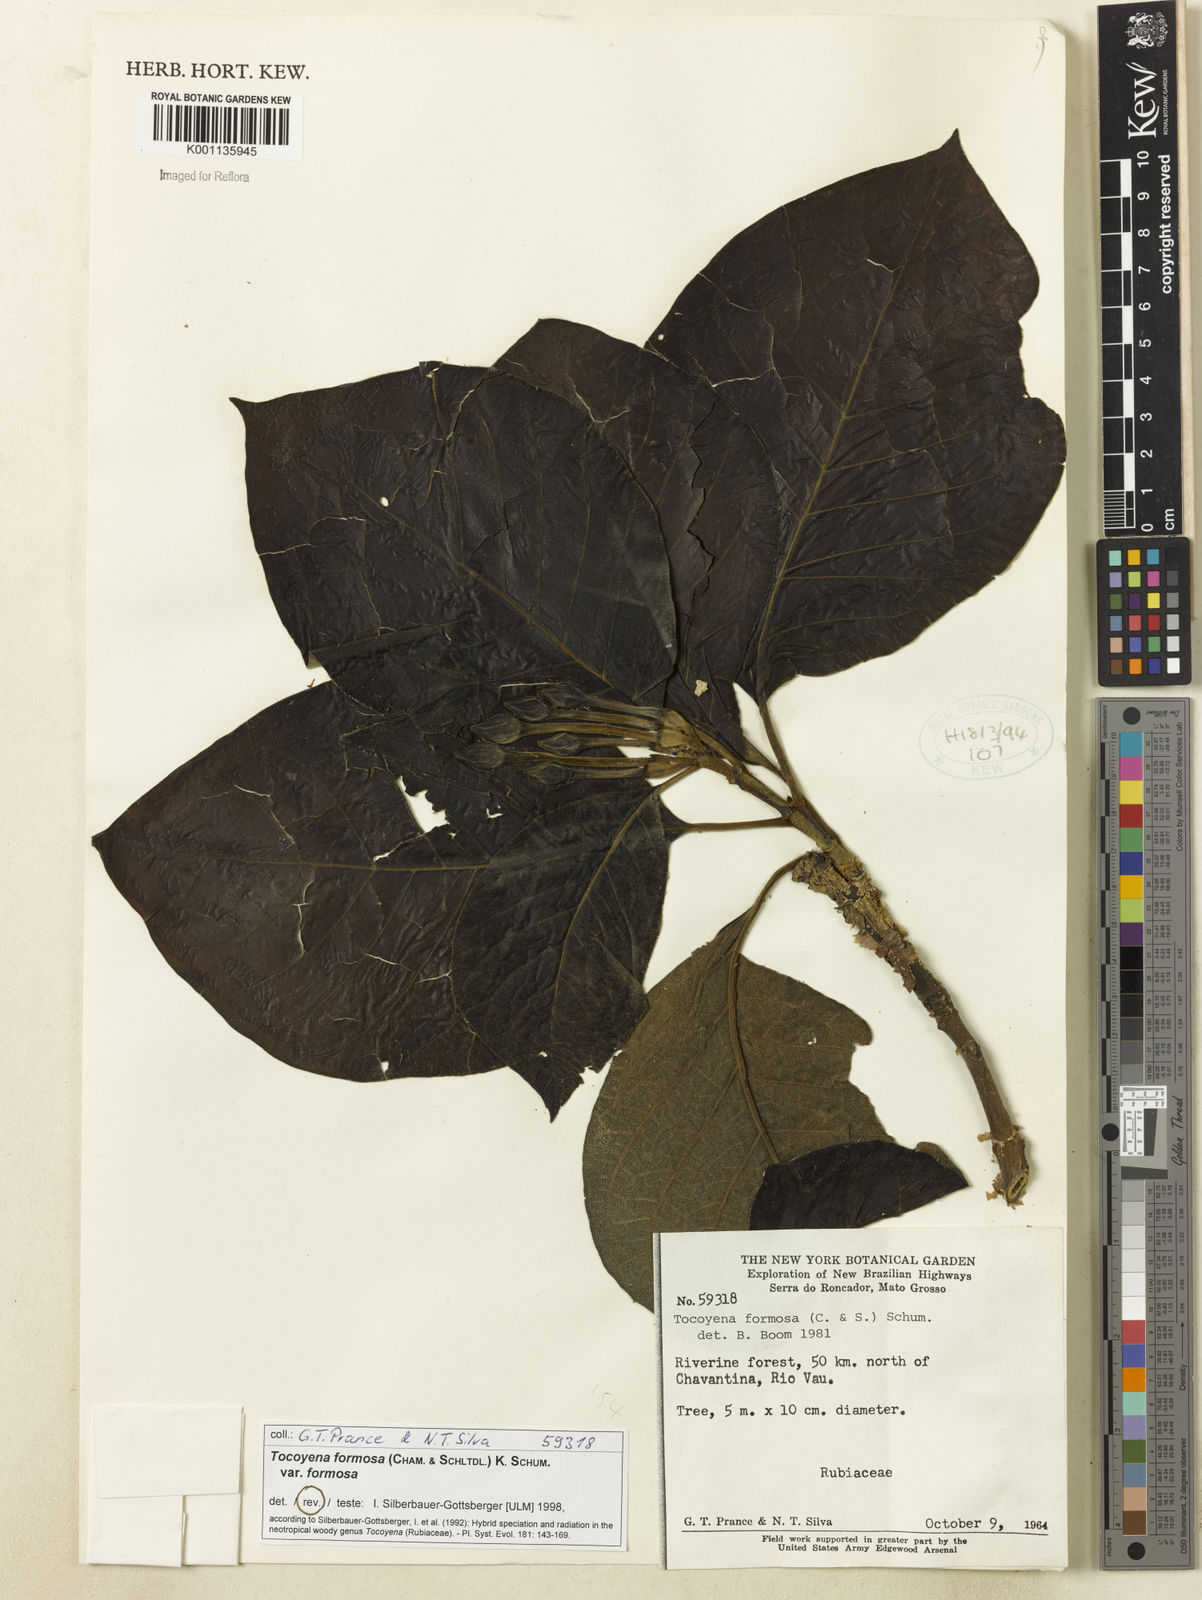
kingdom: Plantae
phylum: Tracheophyta
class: Magnoliopsida
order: Gentianales
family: Rubiaceae
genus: Tocoyena
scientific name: Tocoyena formosa
